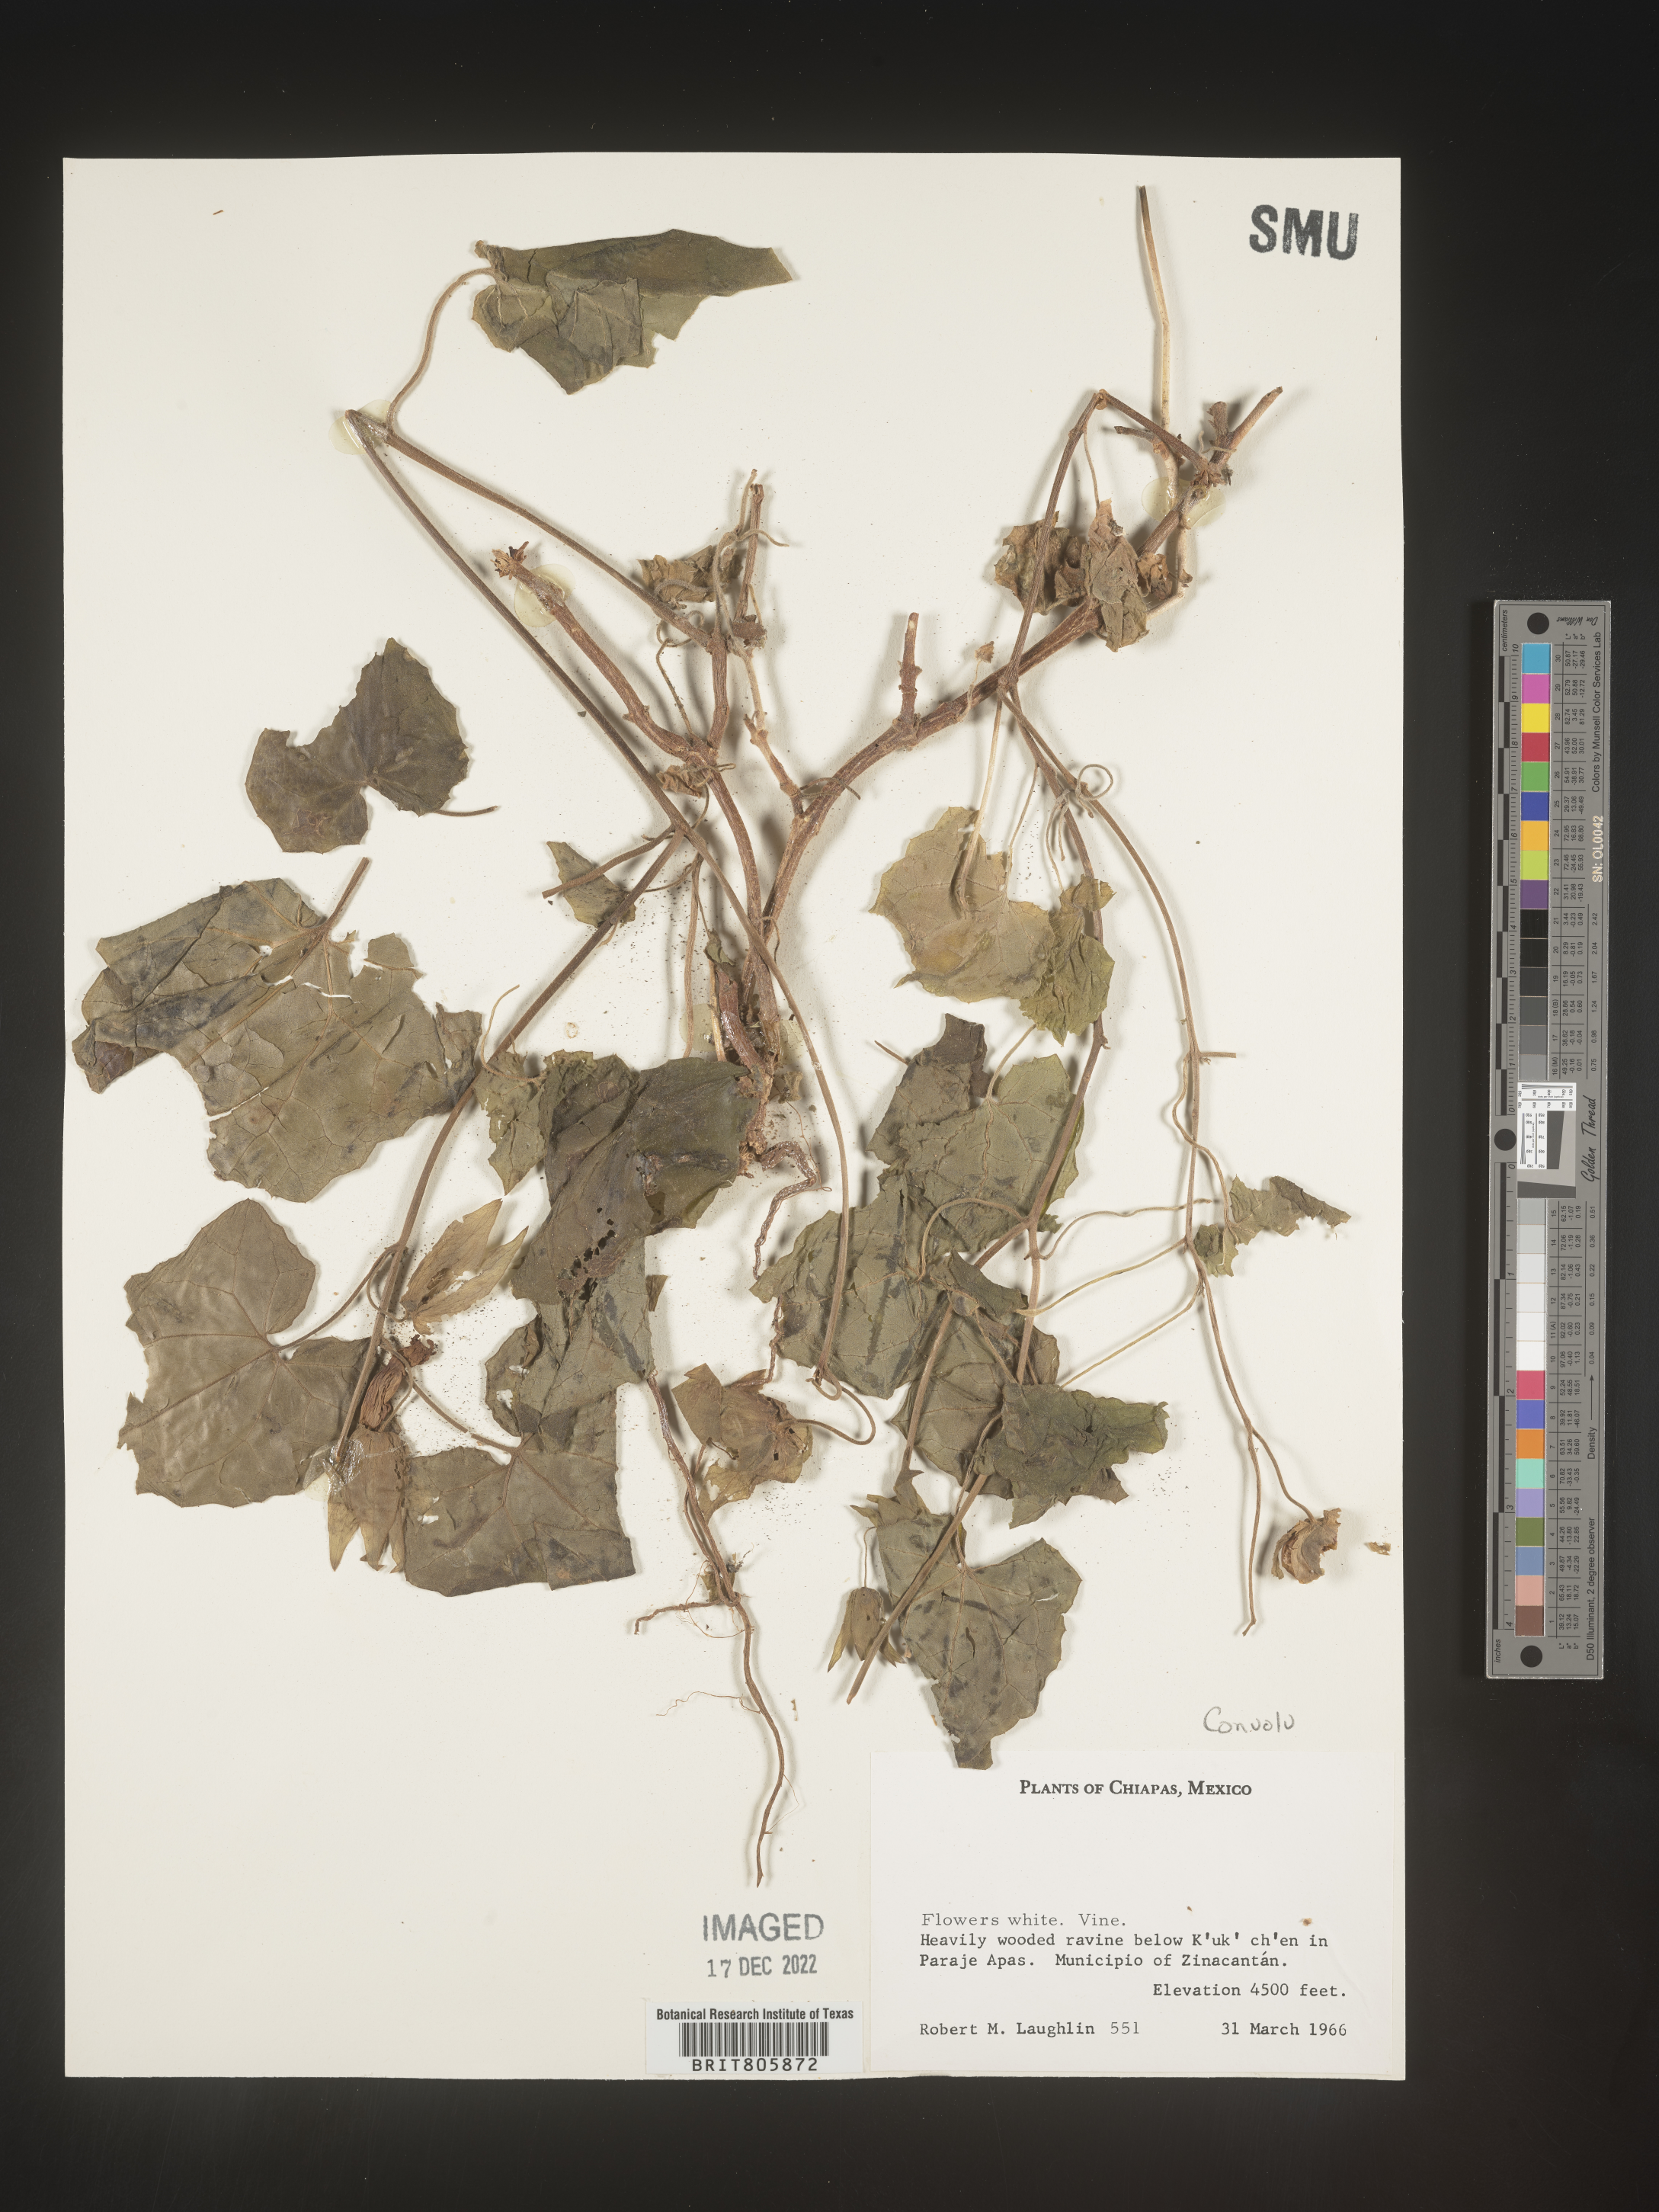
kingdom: Plantae
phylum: Tracheophyta
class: Magnoliopsida
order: Solanales
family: Convolvulaceae
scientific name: Convolvulaceae
